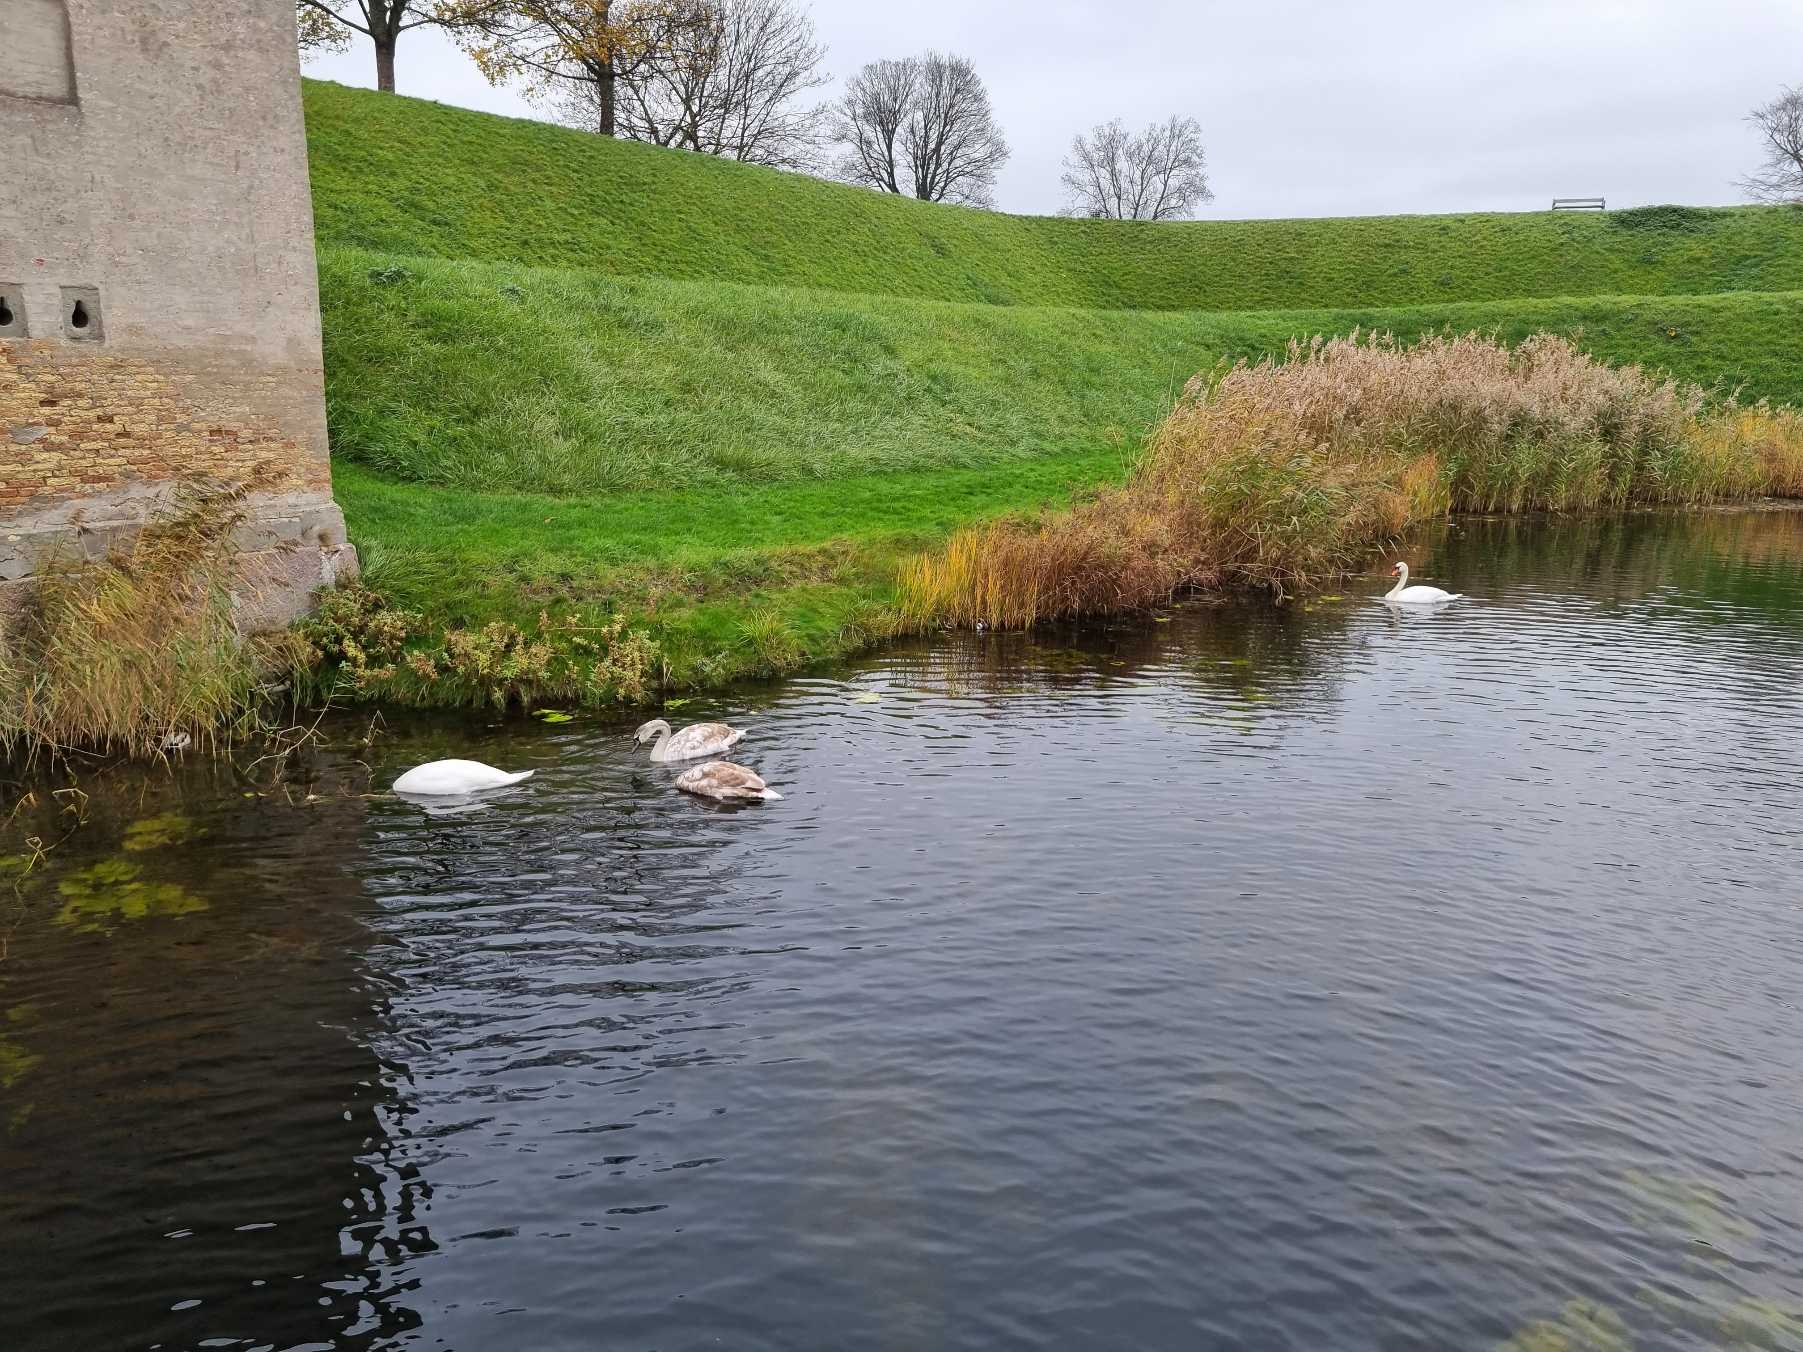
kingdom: Animalia
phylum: Chordata
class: Aves
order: Anseriformes
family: Anatidae
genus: Cygnus
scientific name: Cygnus olor
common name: Knopsvane
